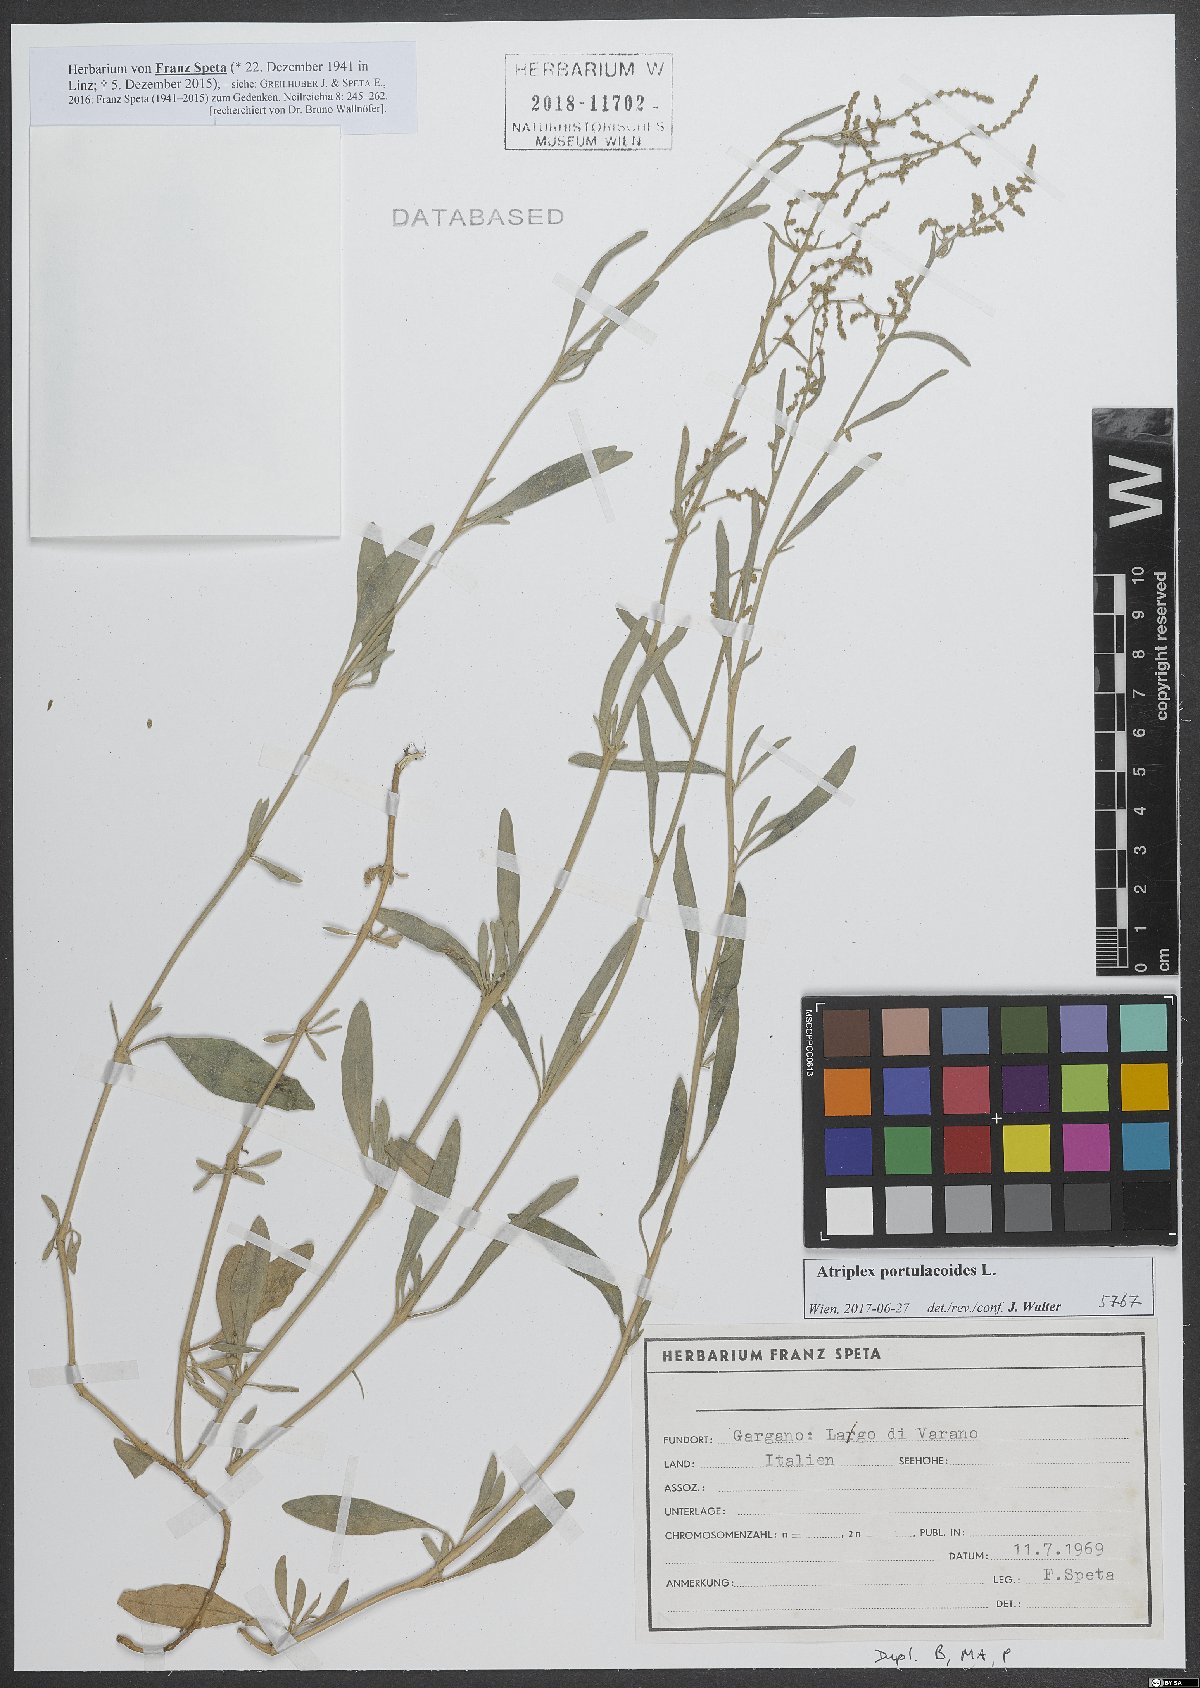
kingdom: Plantae
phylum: Tracheophyta
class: Magnoliopsida
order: Caryophyllales
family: Amaranthaceae
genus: Halimione
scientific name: Halimione portulacoides
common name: Sea-purslane
